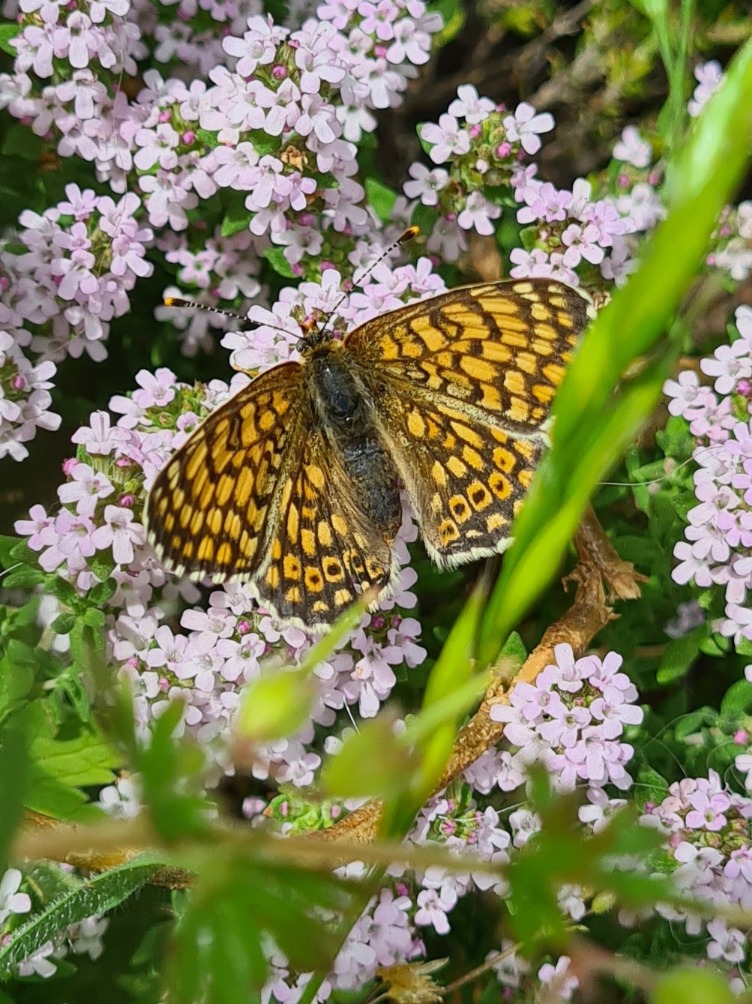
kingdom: Animalia
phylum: Arthropoda
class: Insecta
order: Lepidoptera
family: Nymphalidae
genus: Melitaea
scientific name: Melitaea cinxia
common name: Okkergul pletvinge
